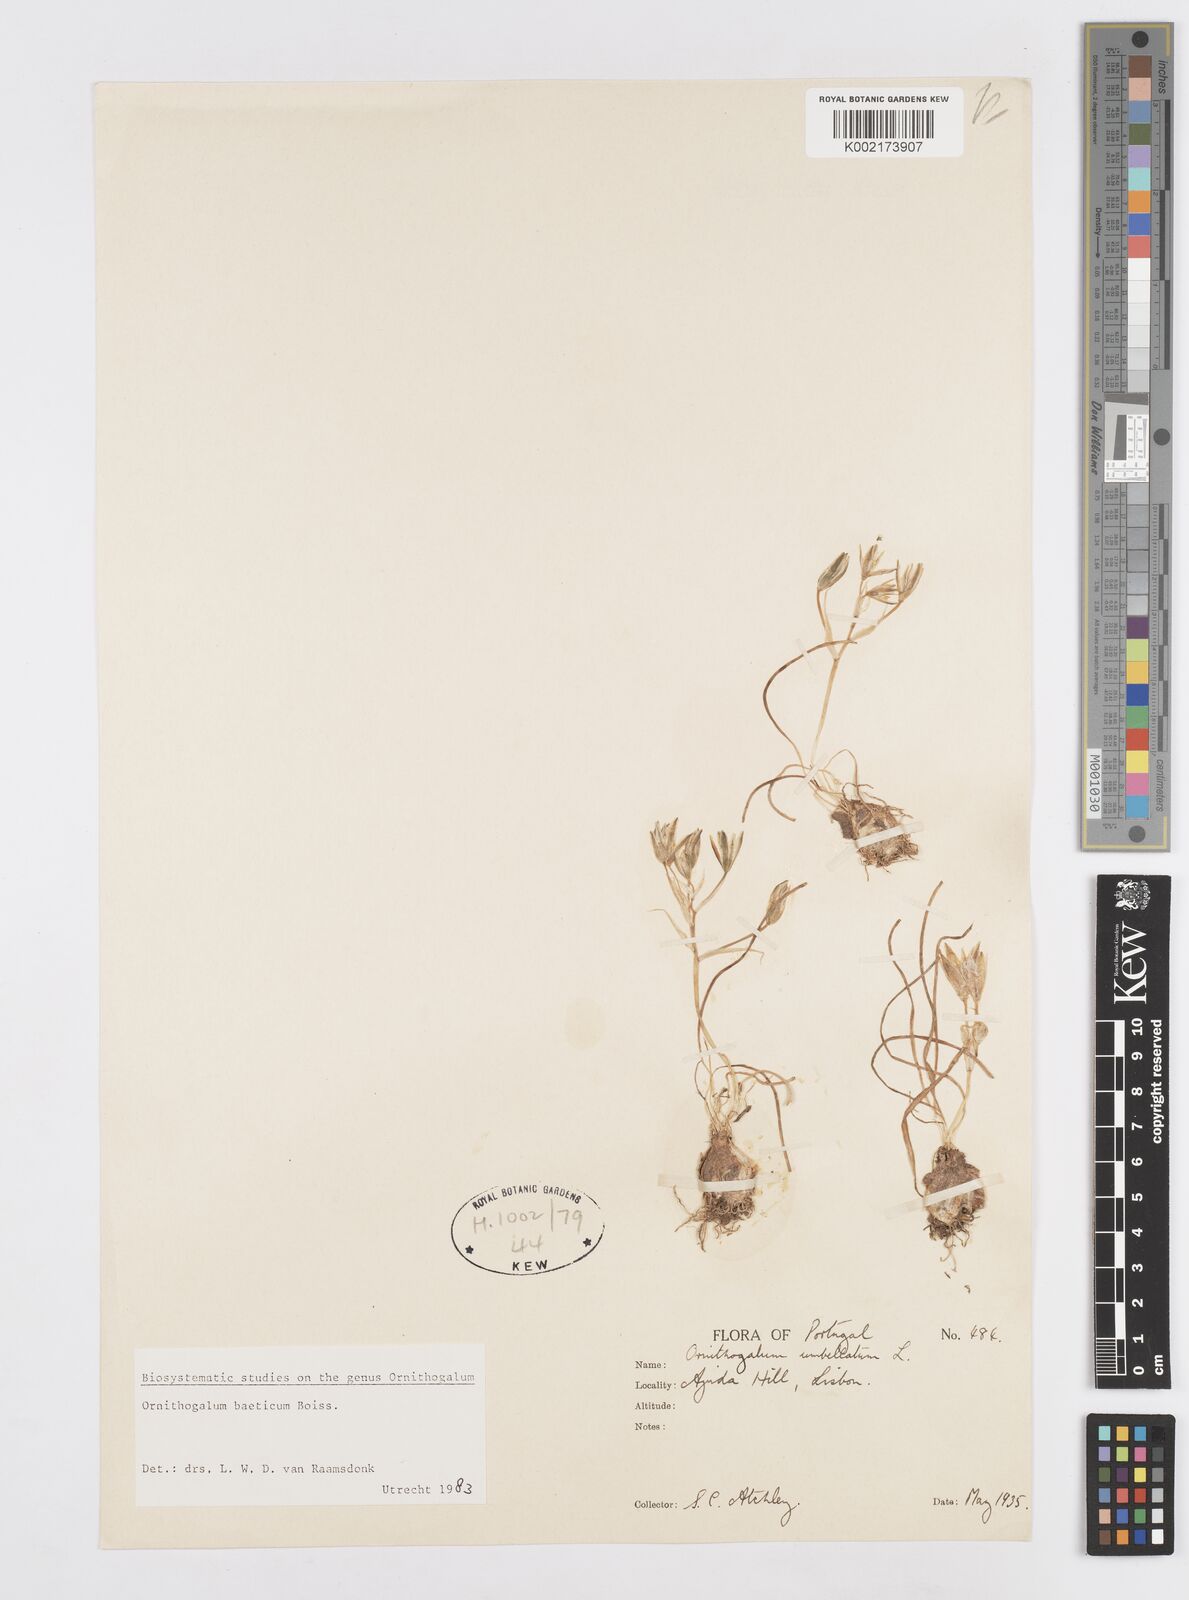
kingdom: Plantae
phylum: Tracheophyta
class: Liliopsida
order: Asparagales
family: Asparagaceae
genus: Ornithogalum
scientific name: Ornithogalum orthophyllum
